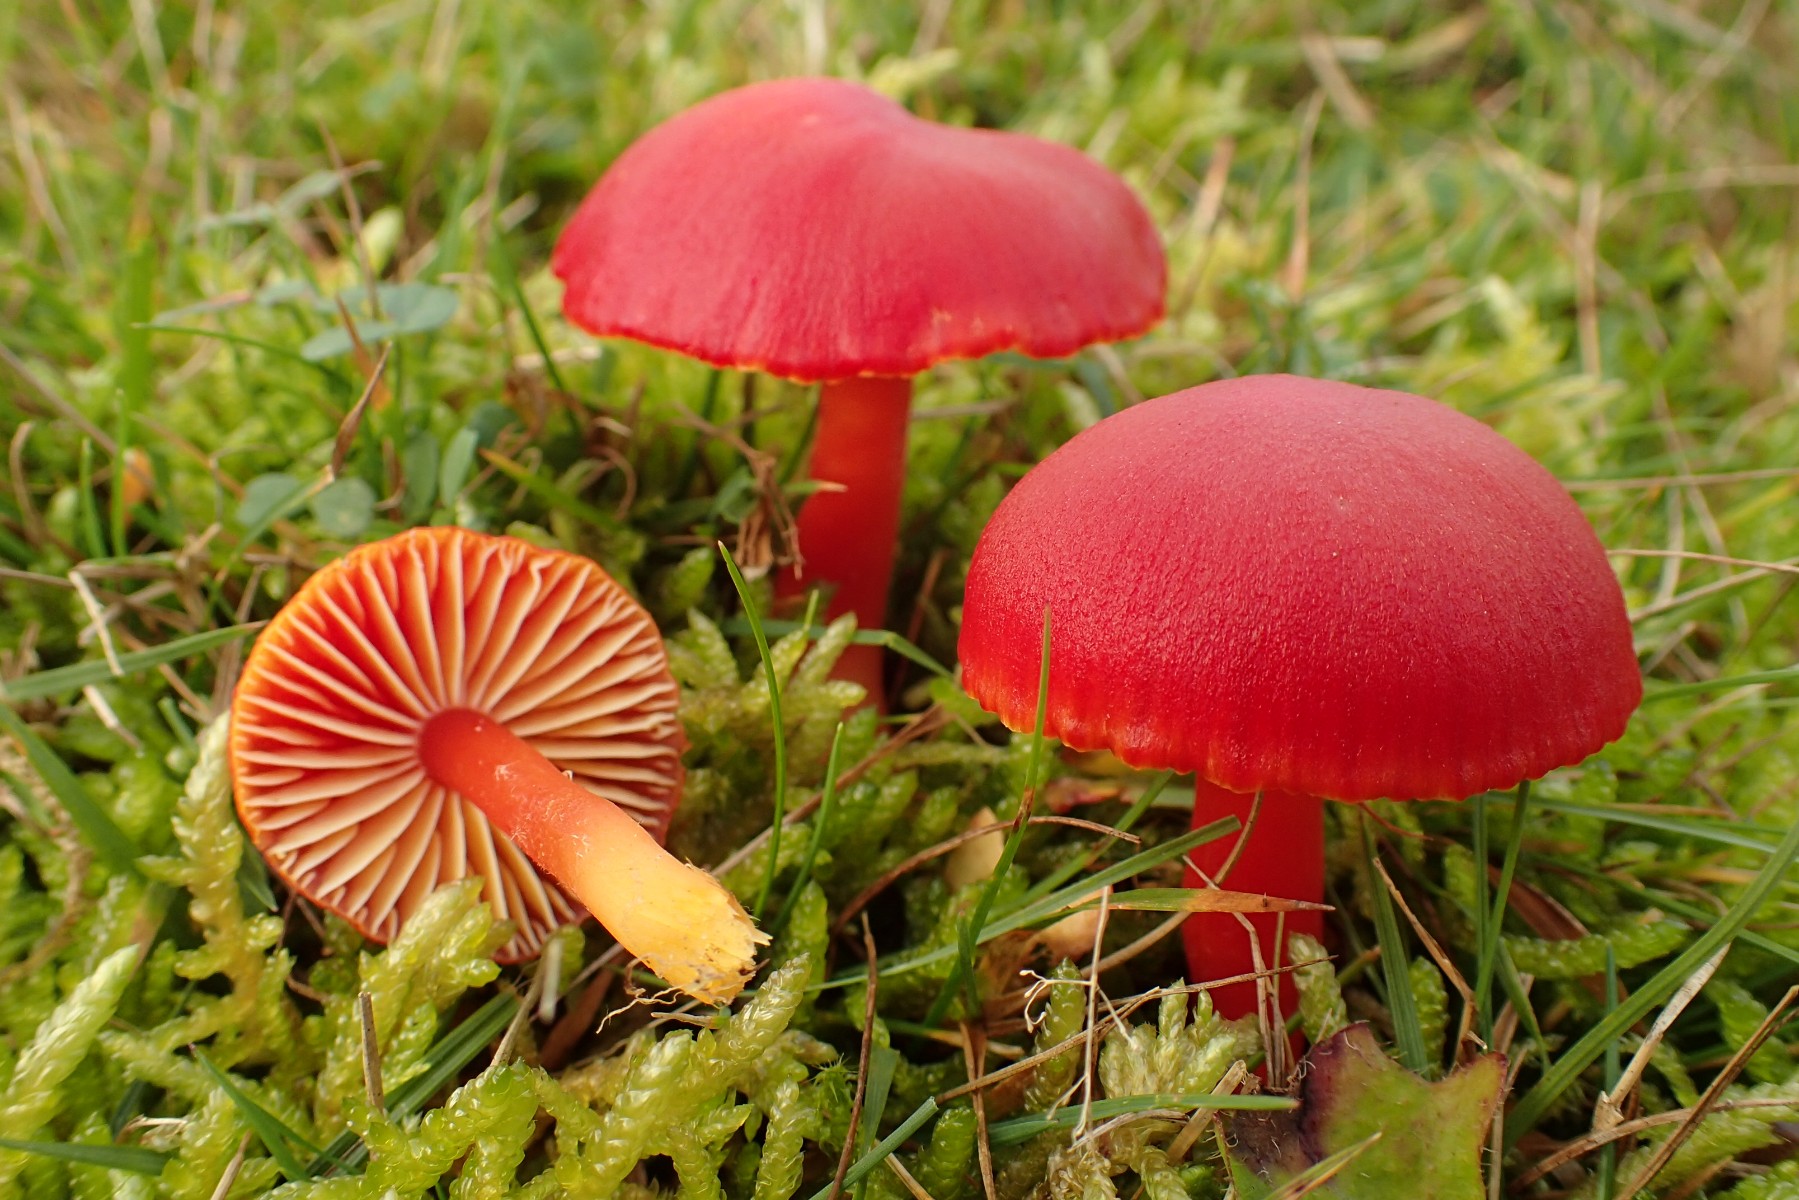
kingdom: Fungi
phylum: Basidiomycota
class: Agaricomycetes
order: Agaricales
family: Hygrophoraceae
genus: Hygrocybe
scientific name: Hygrocybe coccinea
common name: cinnober-vokshat
